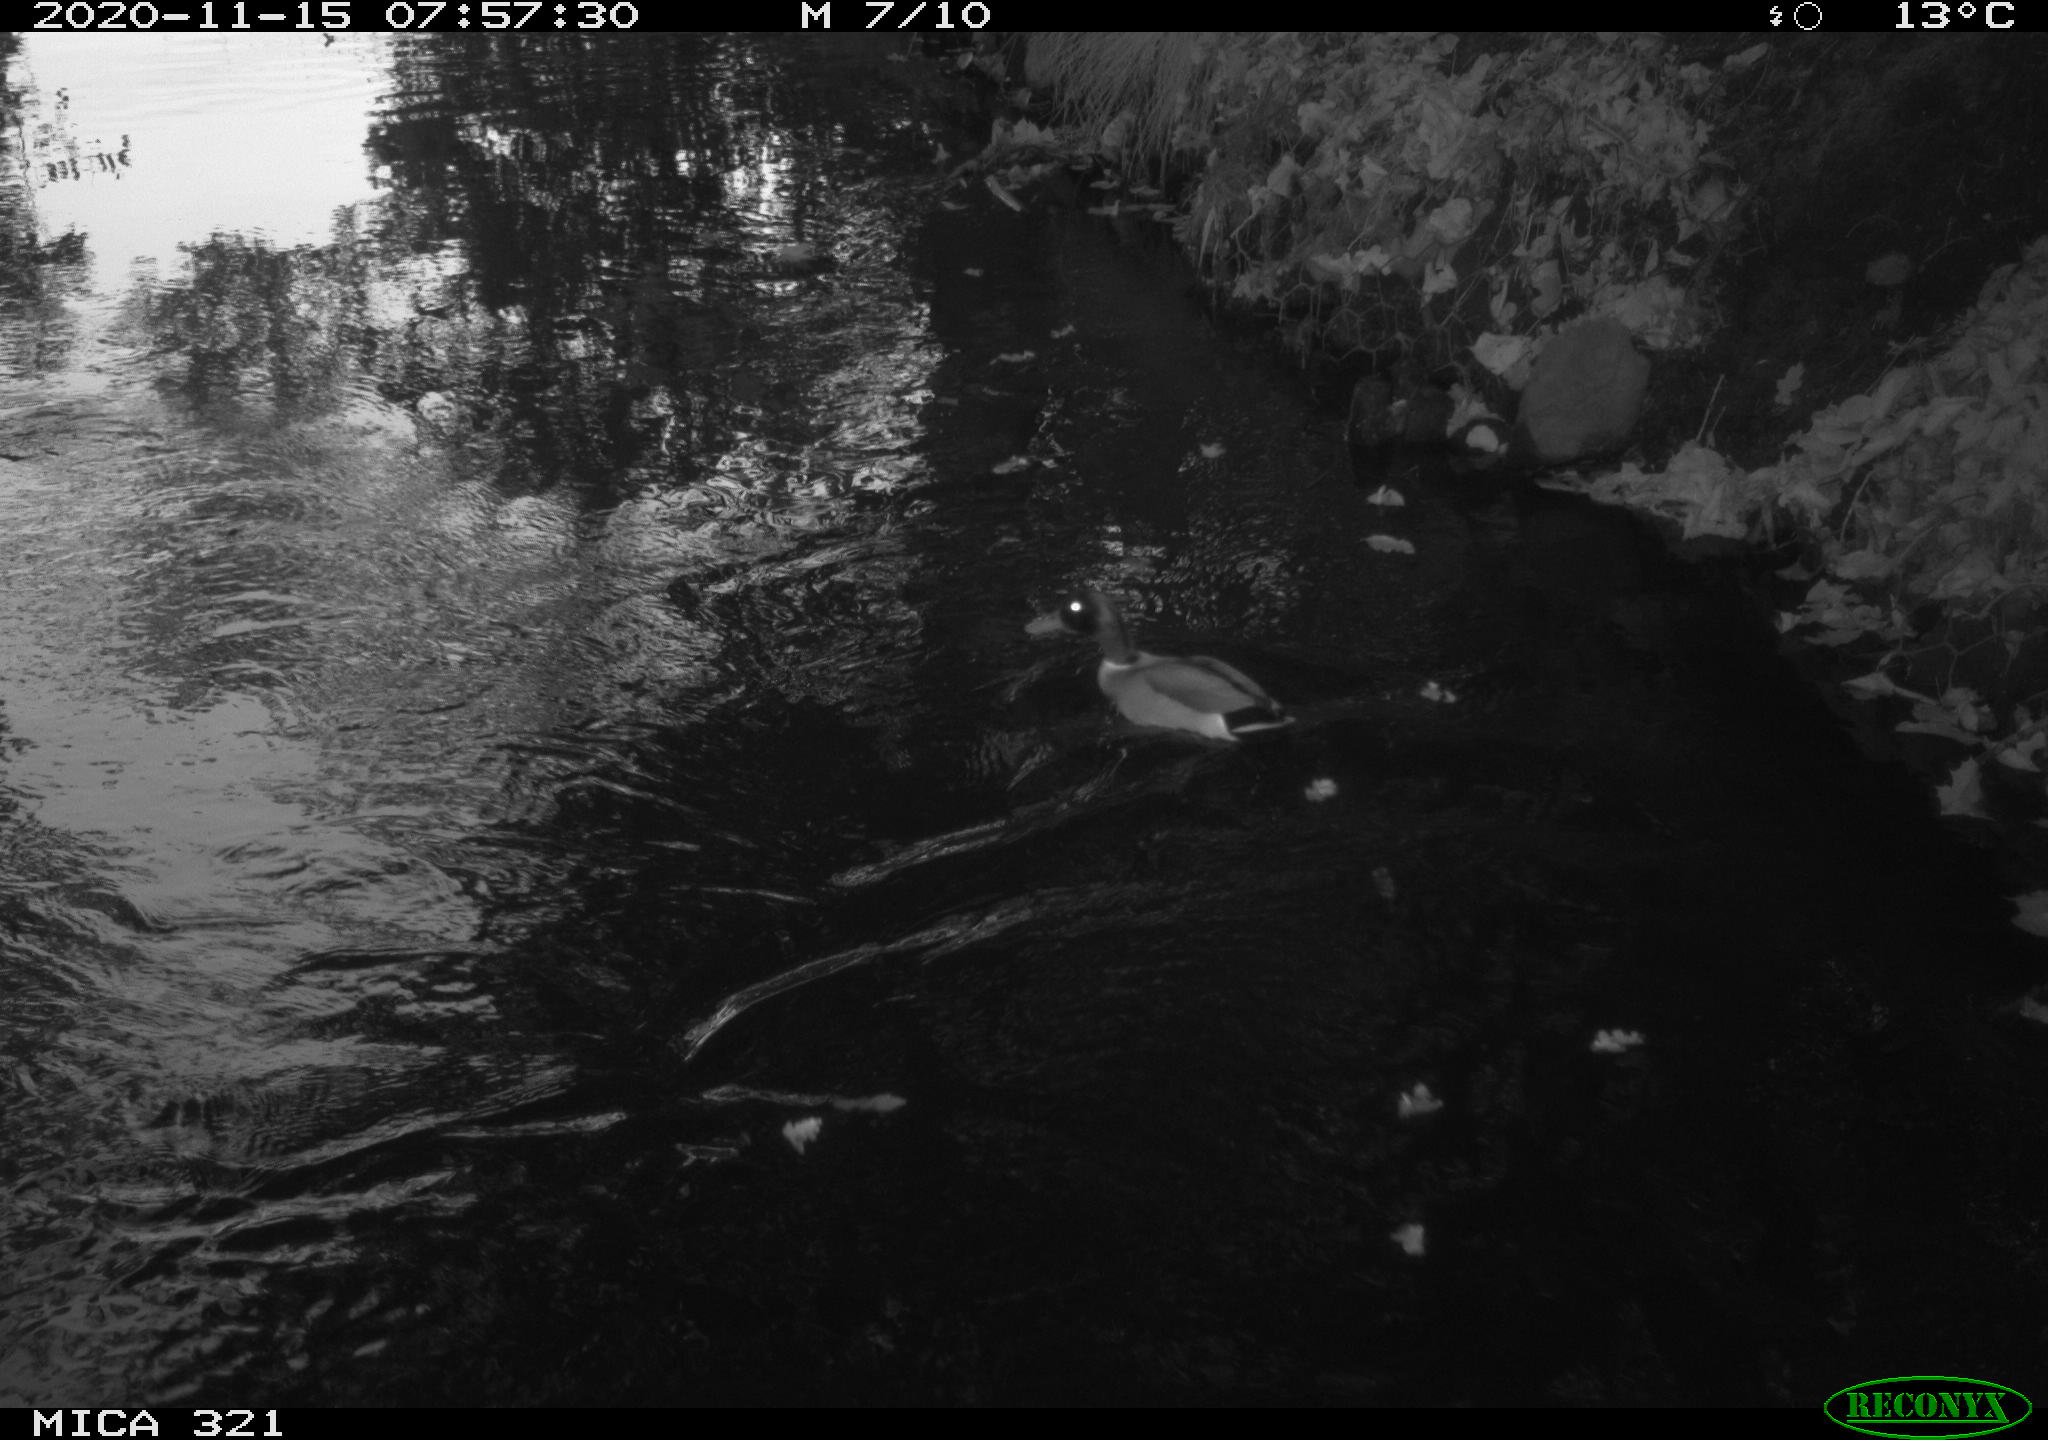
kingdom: Animalia
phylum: Chordata
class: Aves
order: Anseriformes
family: Anatidae
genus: Anas
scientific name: Anas platyrhynchos
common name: Mallard
